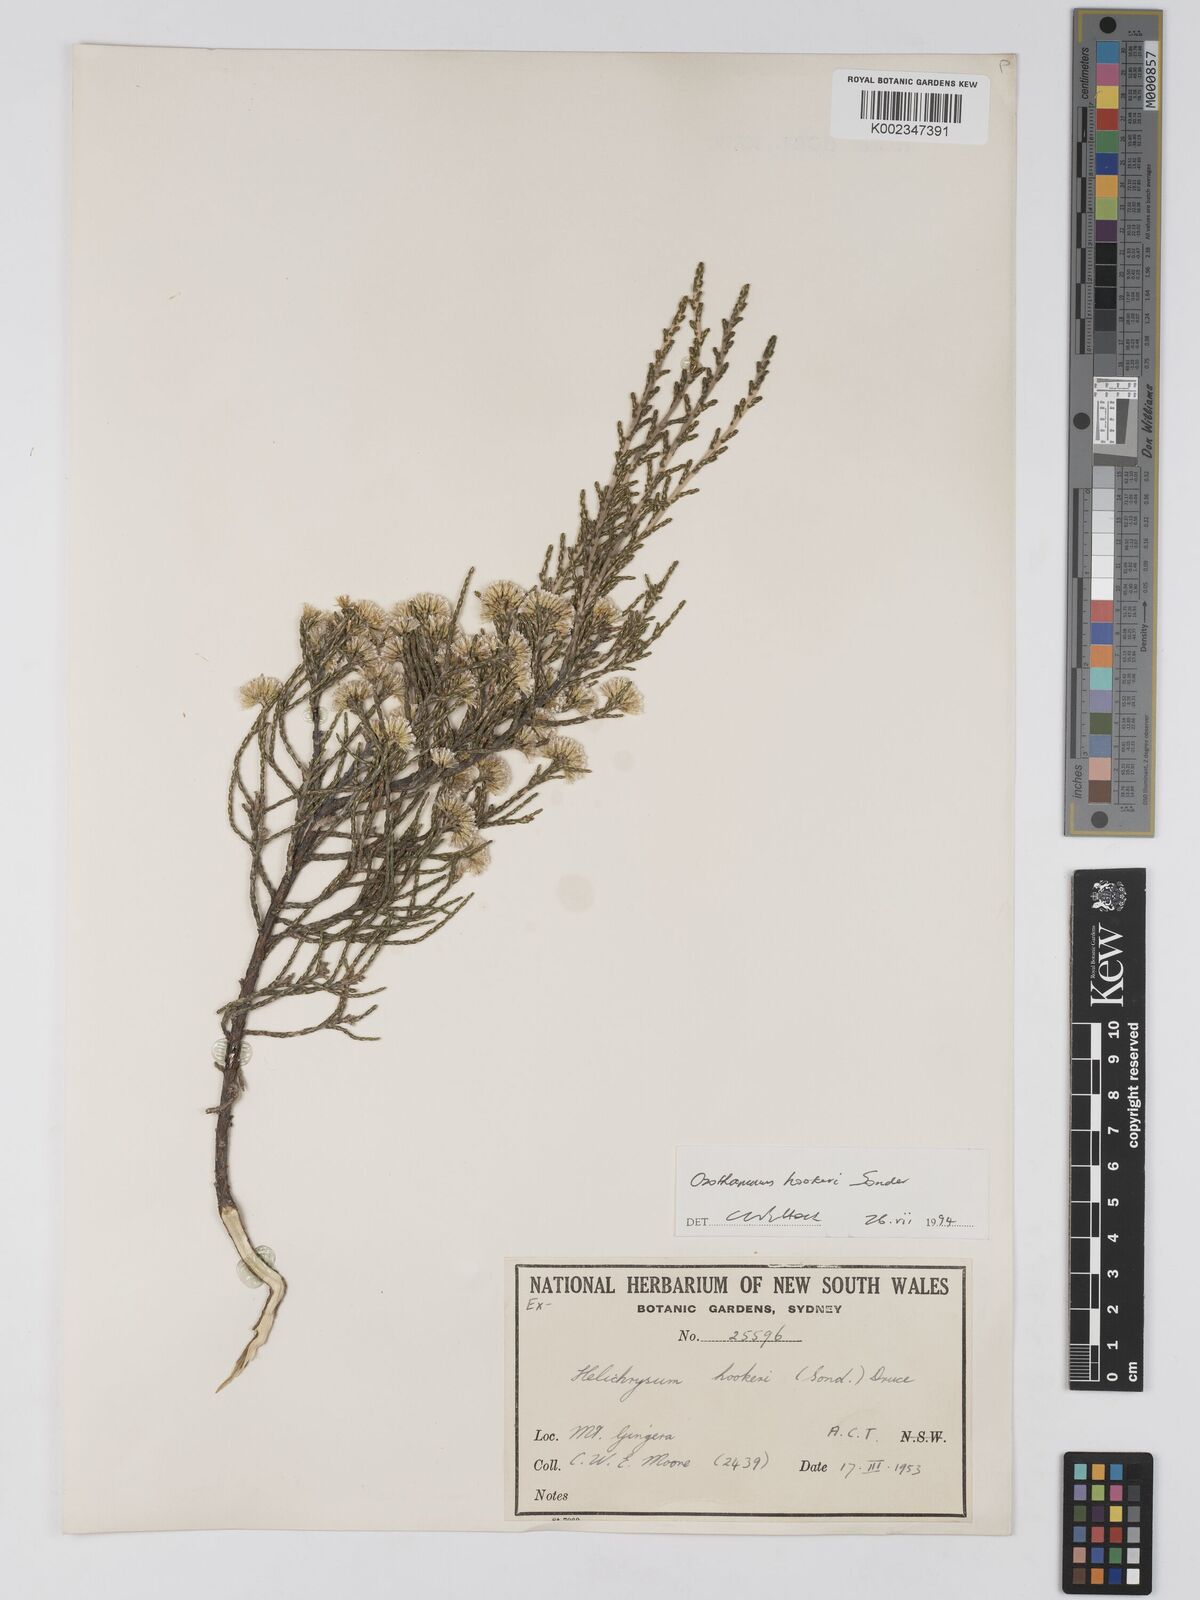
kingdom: Plantae
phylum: Tracheophyta
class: Magnoliopsida
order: Asterales
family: Asteraceae
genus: Ozothamnus
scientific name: Ozothamnus
